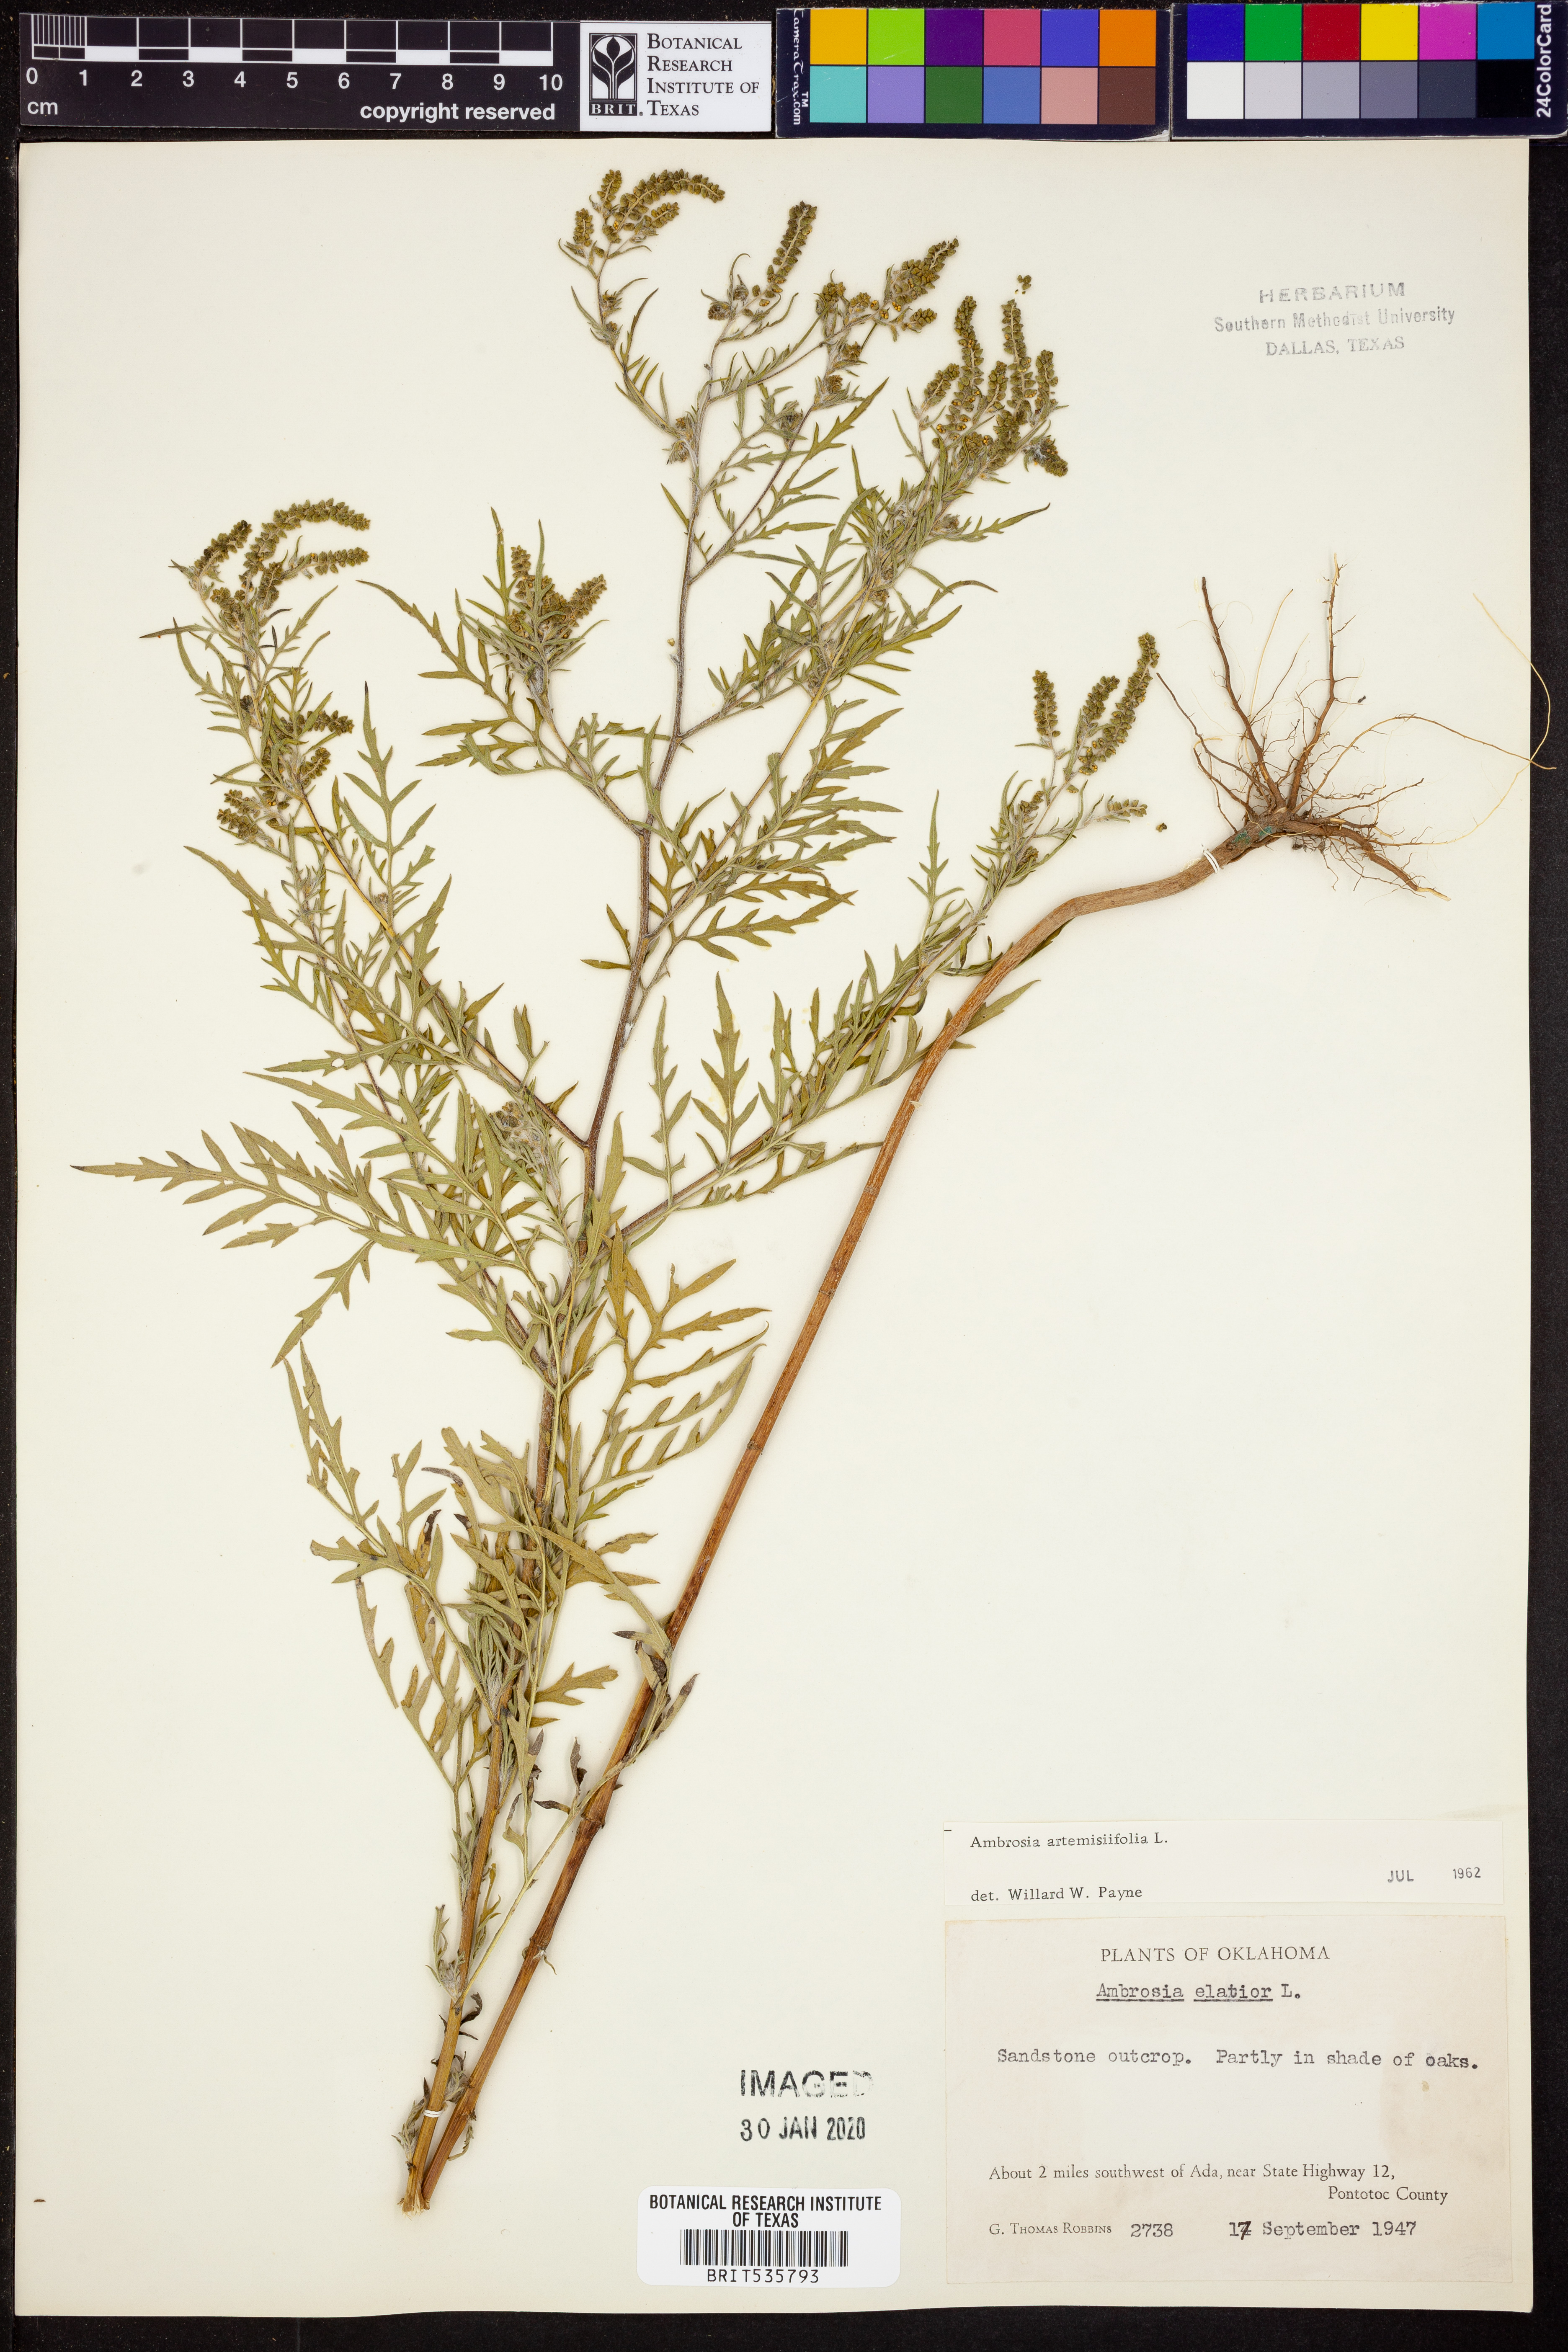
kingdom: Plantae
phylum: Tracheophyta
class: Magnoliopsida
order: Asterales
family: Asteraceae
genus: Ambrosia
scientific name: Ambrosia artemisiifolia
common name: Annual ragweed
